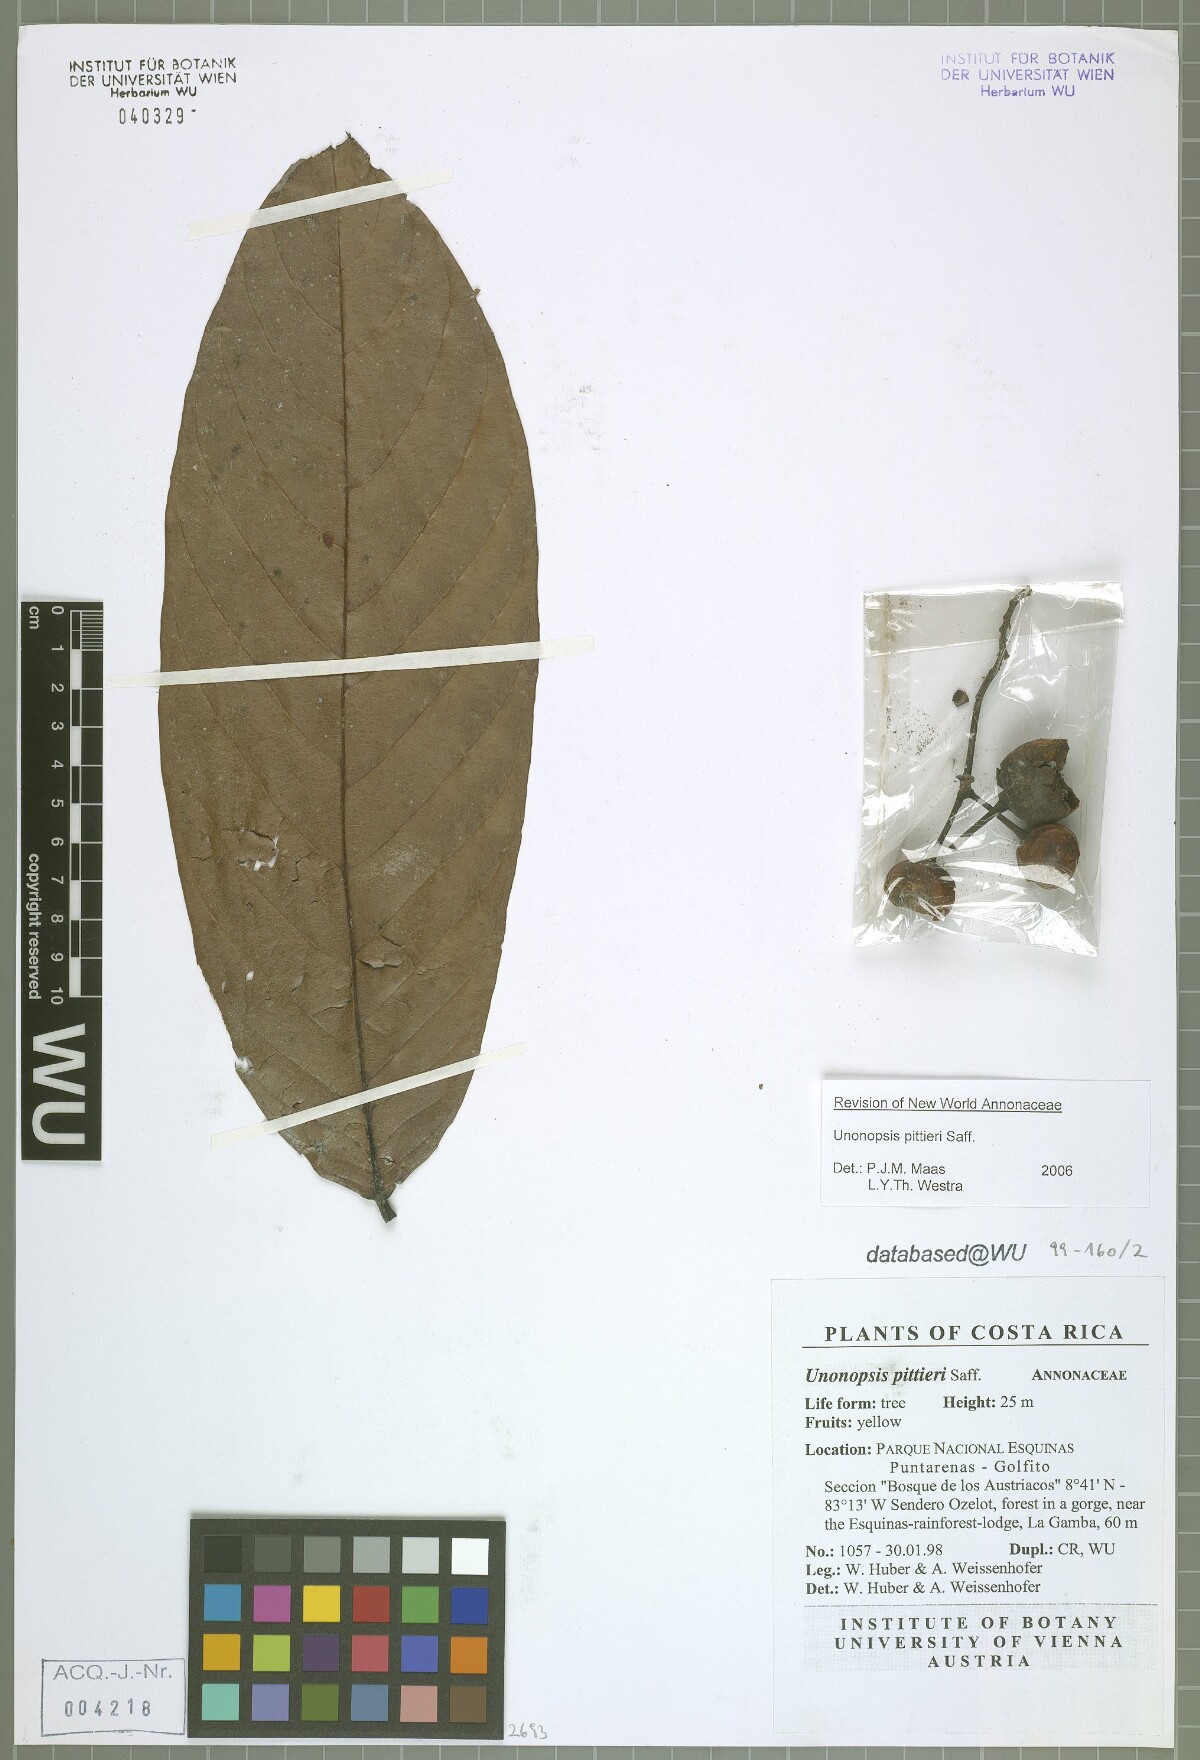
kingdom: Plantae
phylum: Tracheophyta
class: Magnoliopsida
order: Magnoliales
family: Annonaceae
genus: Unonopsis
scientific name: Unonopsis pittieri
